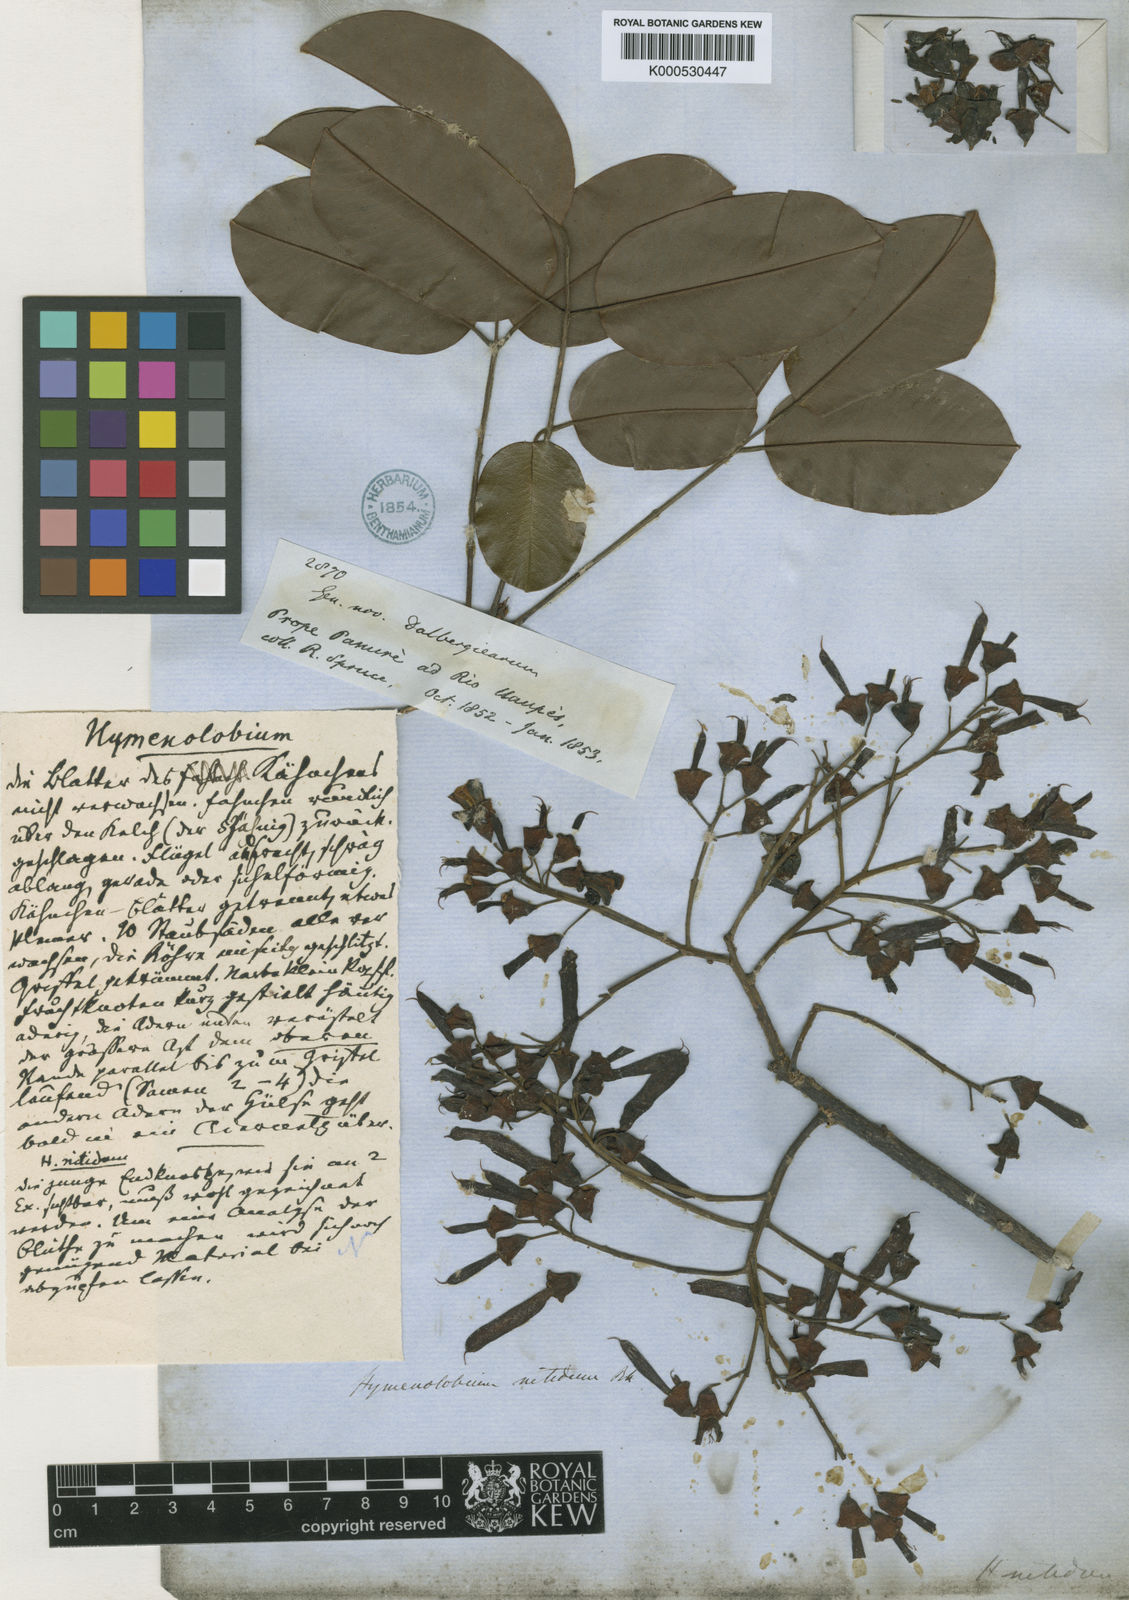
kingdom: Plantae
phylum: Tracheophyta
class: Magnoliopsida
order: Fabales
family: Fabaceae
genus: Hymenolobium
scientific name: Hymenolobium nitidum
